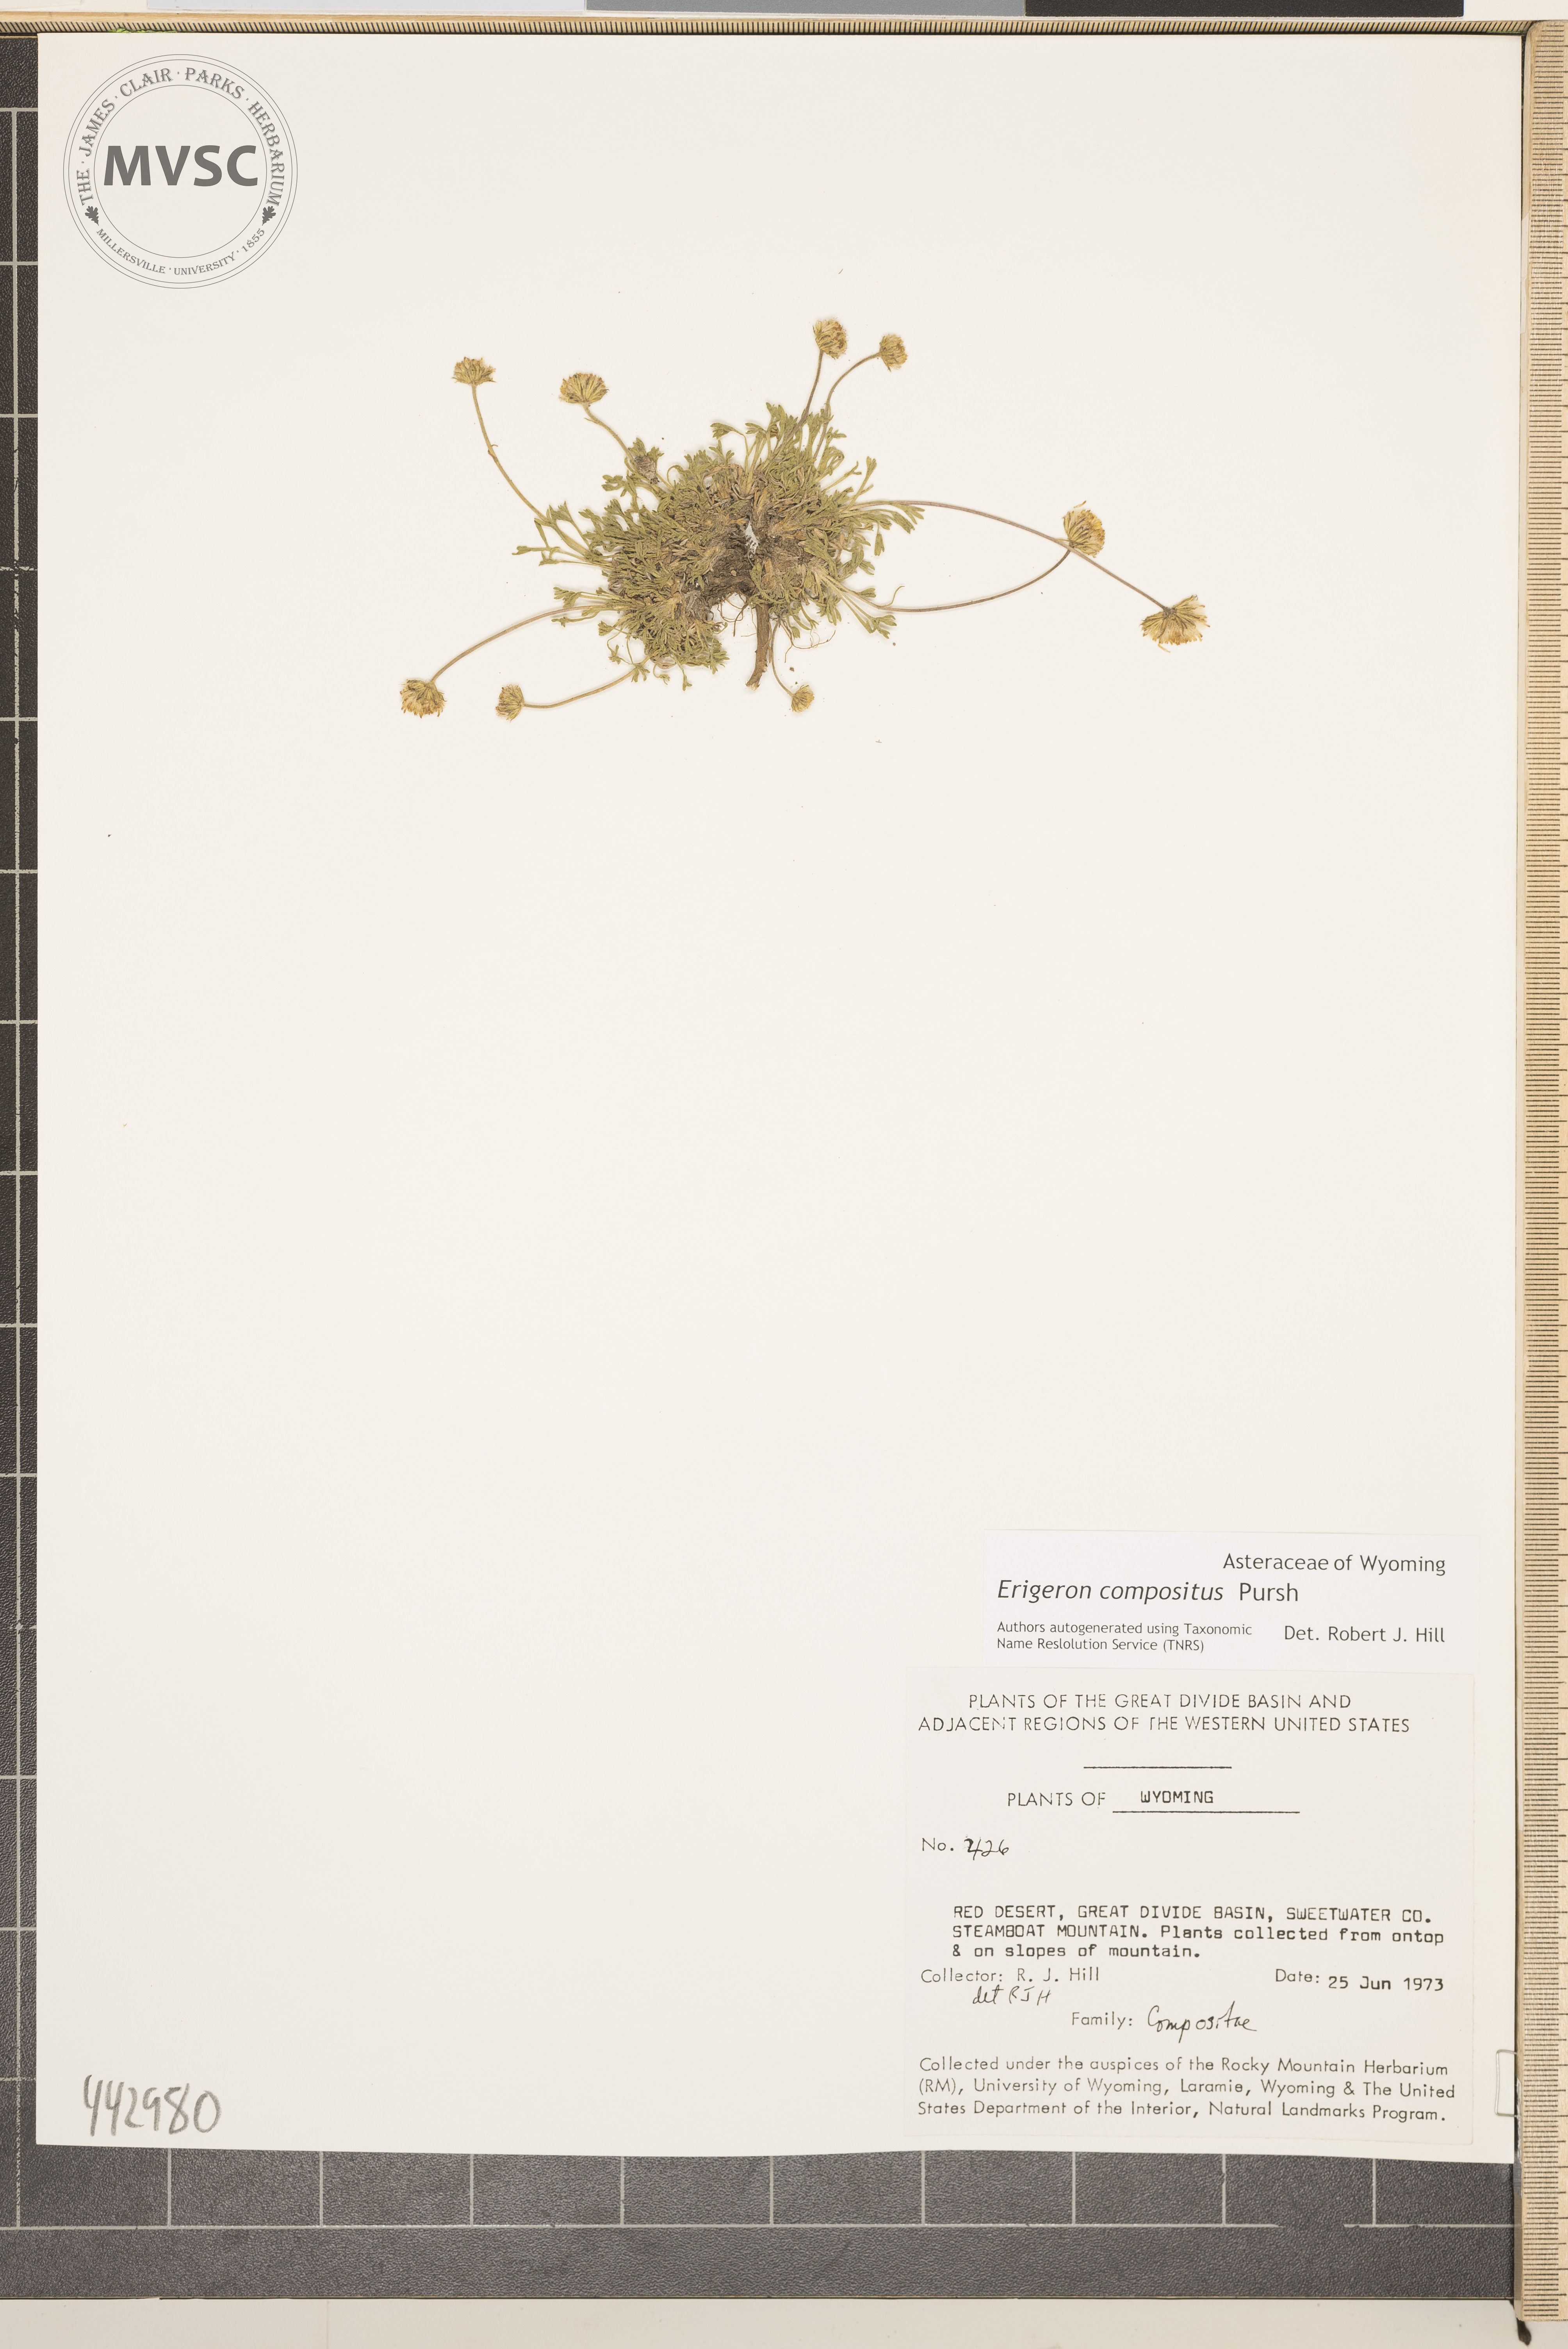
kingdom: Plantae
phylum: Tracheophyta
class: Magnoliopsida
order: Asterales
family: Asteraceae
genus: Erigeron
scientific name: Erigeron compositus
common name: Dwarf mountain fleabane
